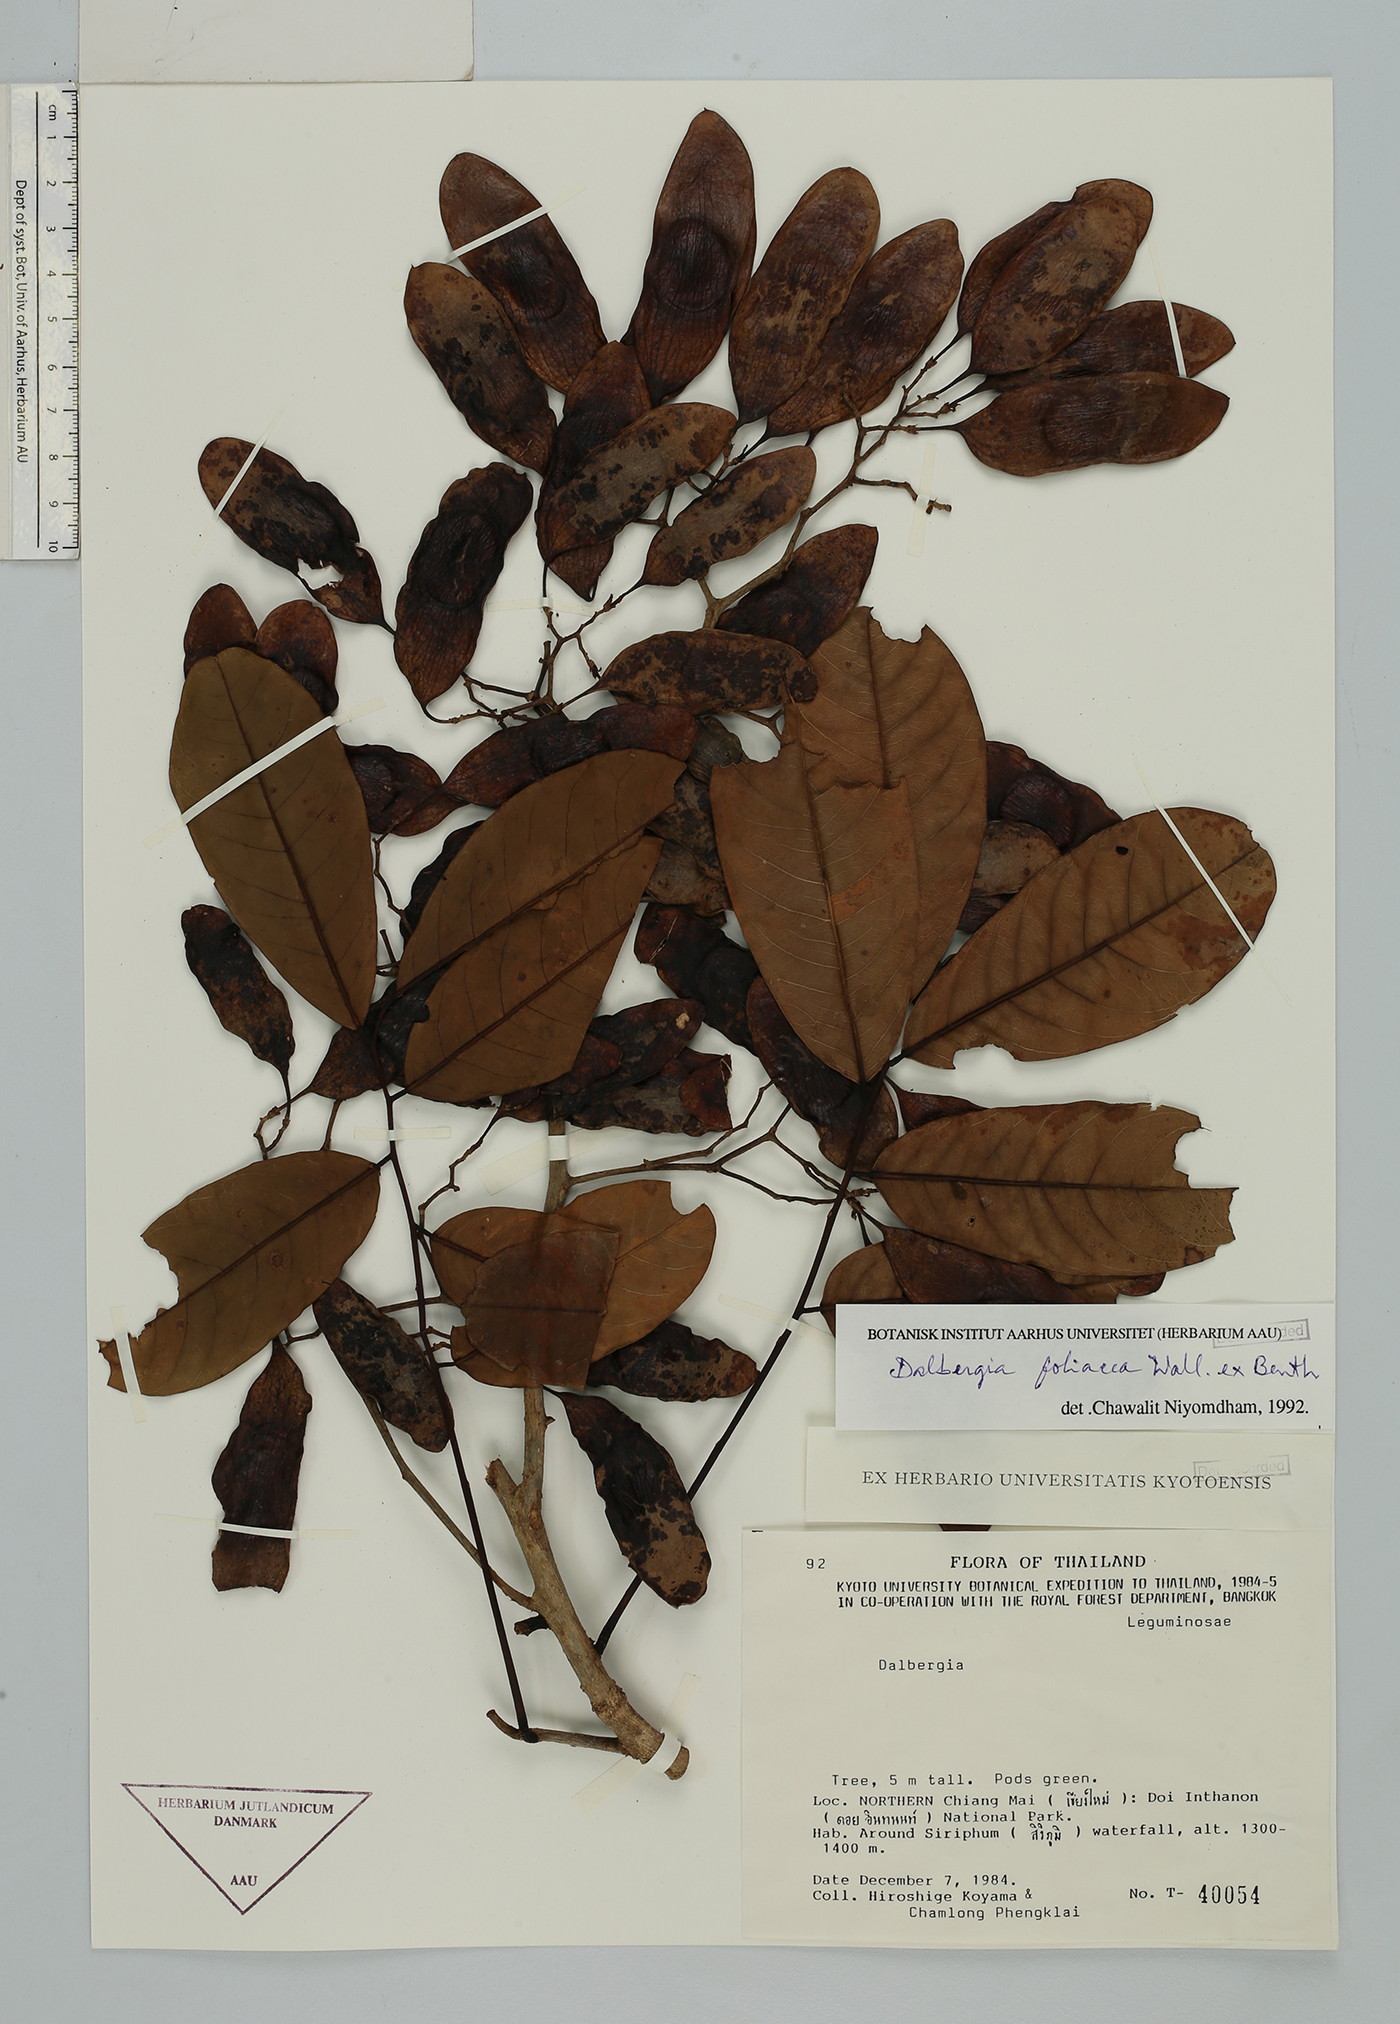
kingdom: Plantae
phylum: Tracheophyta
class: Magnoliopsida
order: Fabales
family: Fabaceae
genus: Dalbergia
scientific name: Dalbergia foliosa
